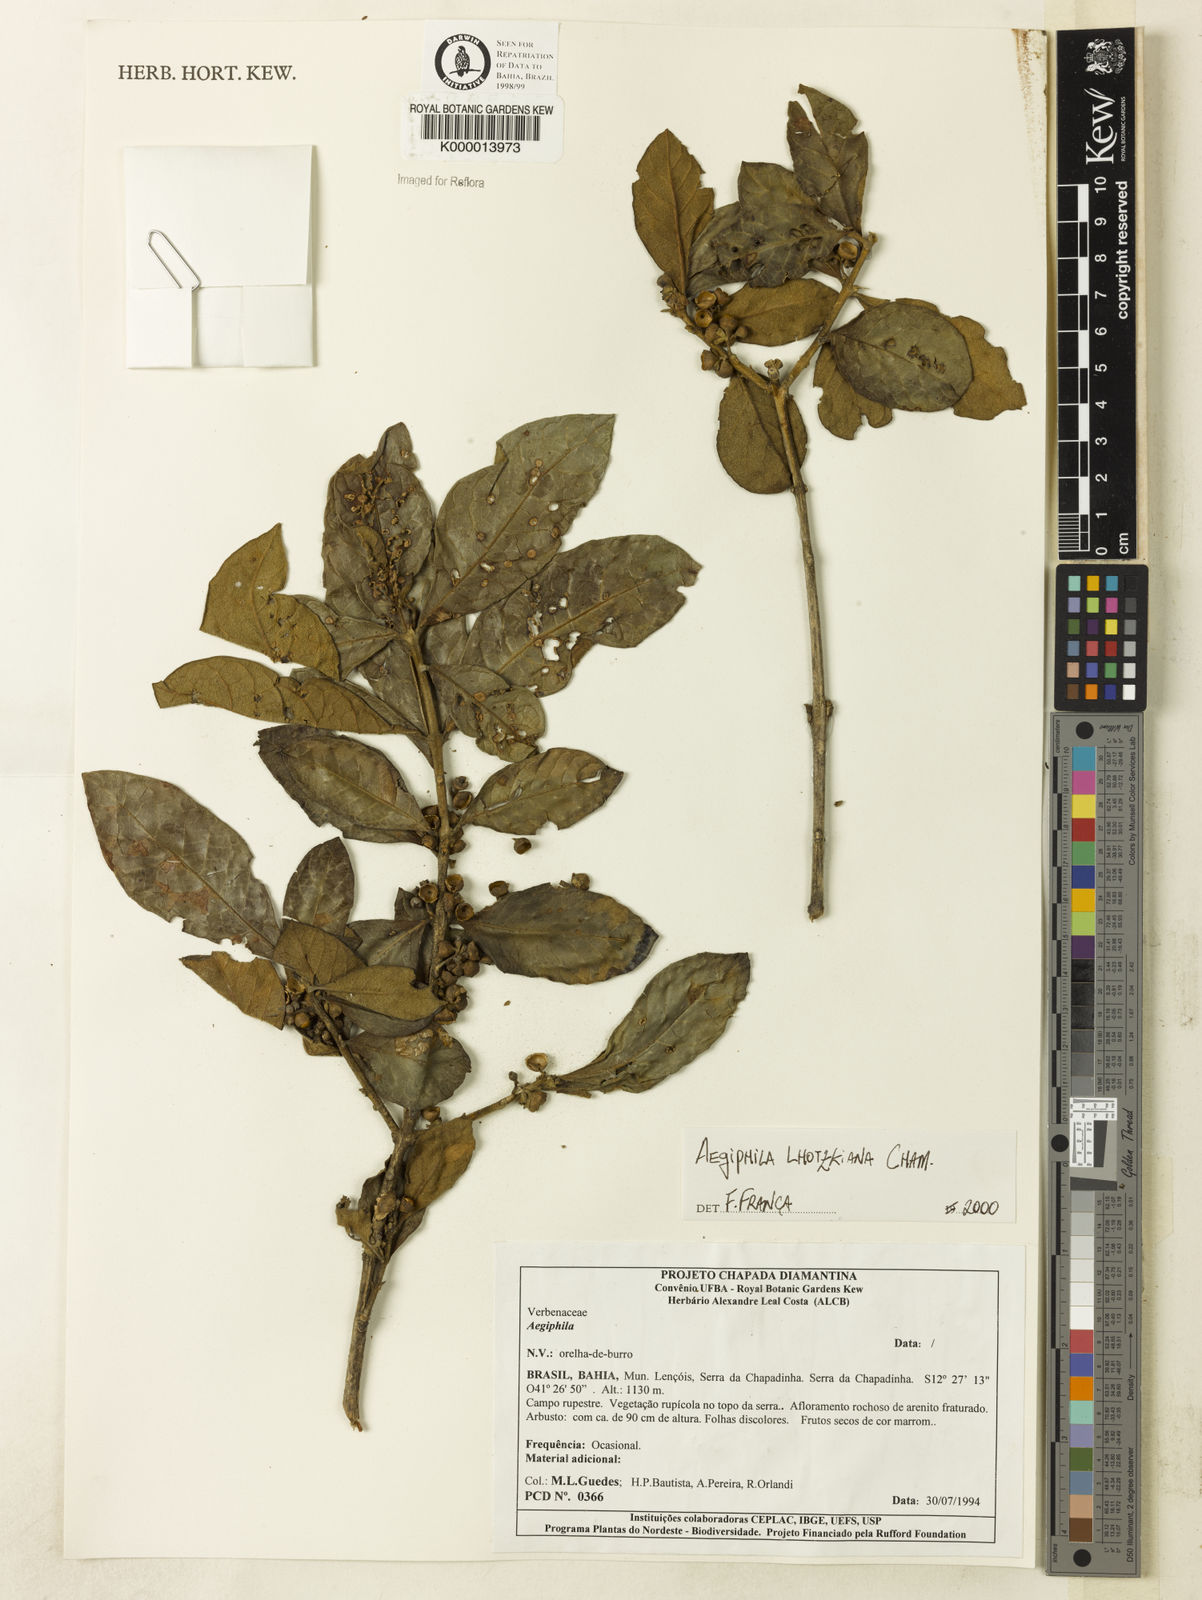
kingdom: Plantae
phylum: Tracheophyta
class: Magnoliopsida
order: Lamiales
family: Lamiaceae
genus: Aegiphila
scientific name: Aegiphila
